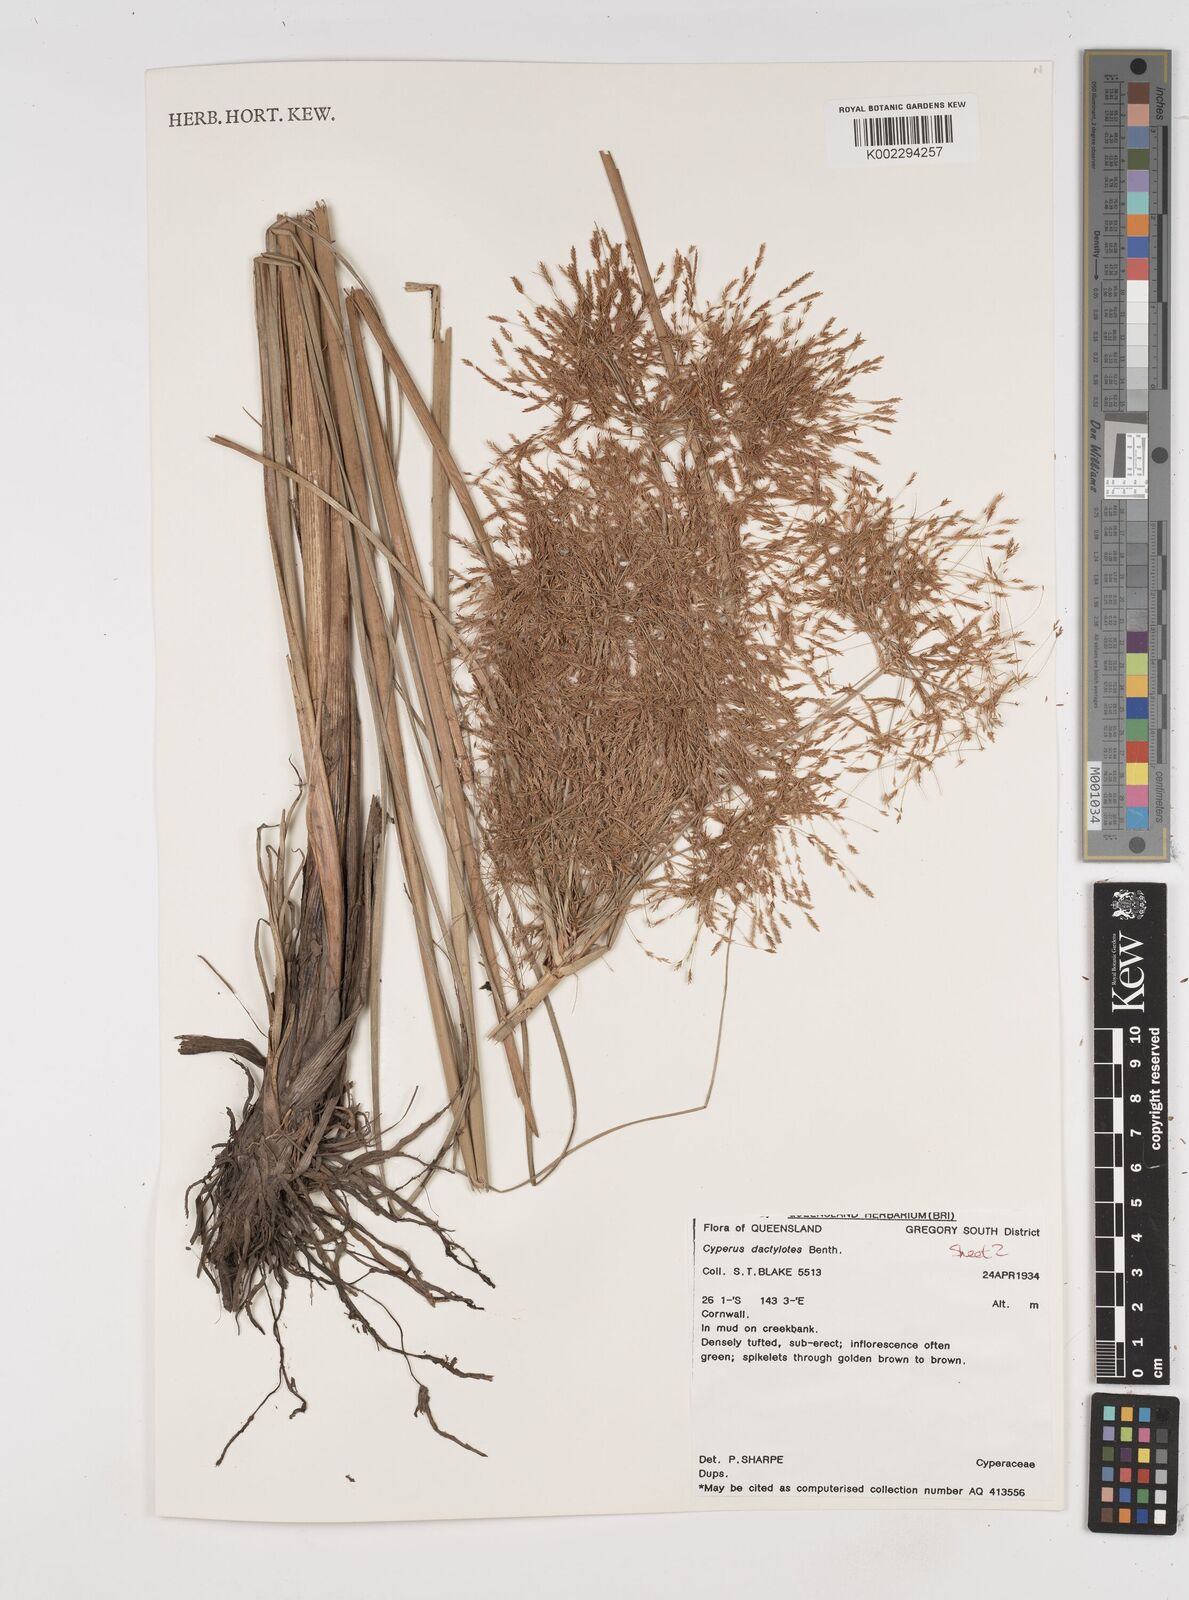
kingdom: Plantae
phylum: Tracheophyta
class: Liliopsida
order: Poales
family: Cyperaceae
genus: Cyperus
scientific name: Cyperus dactylotes
